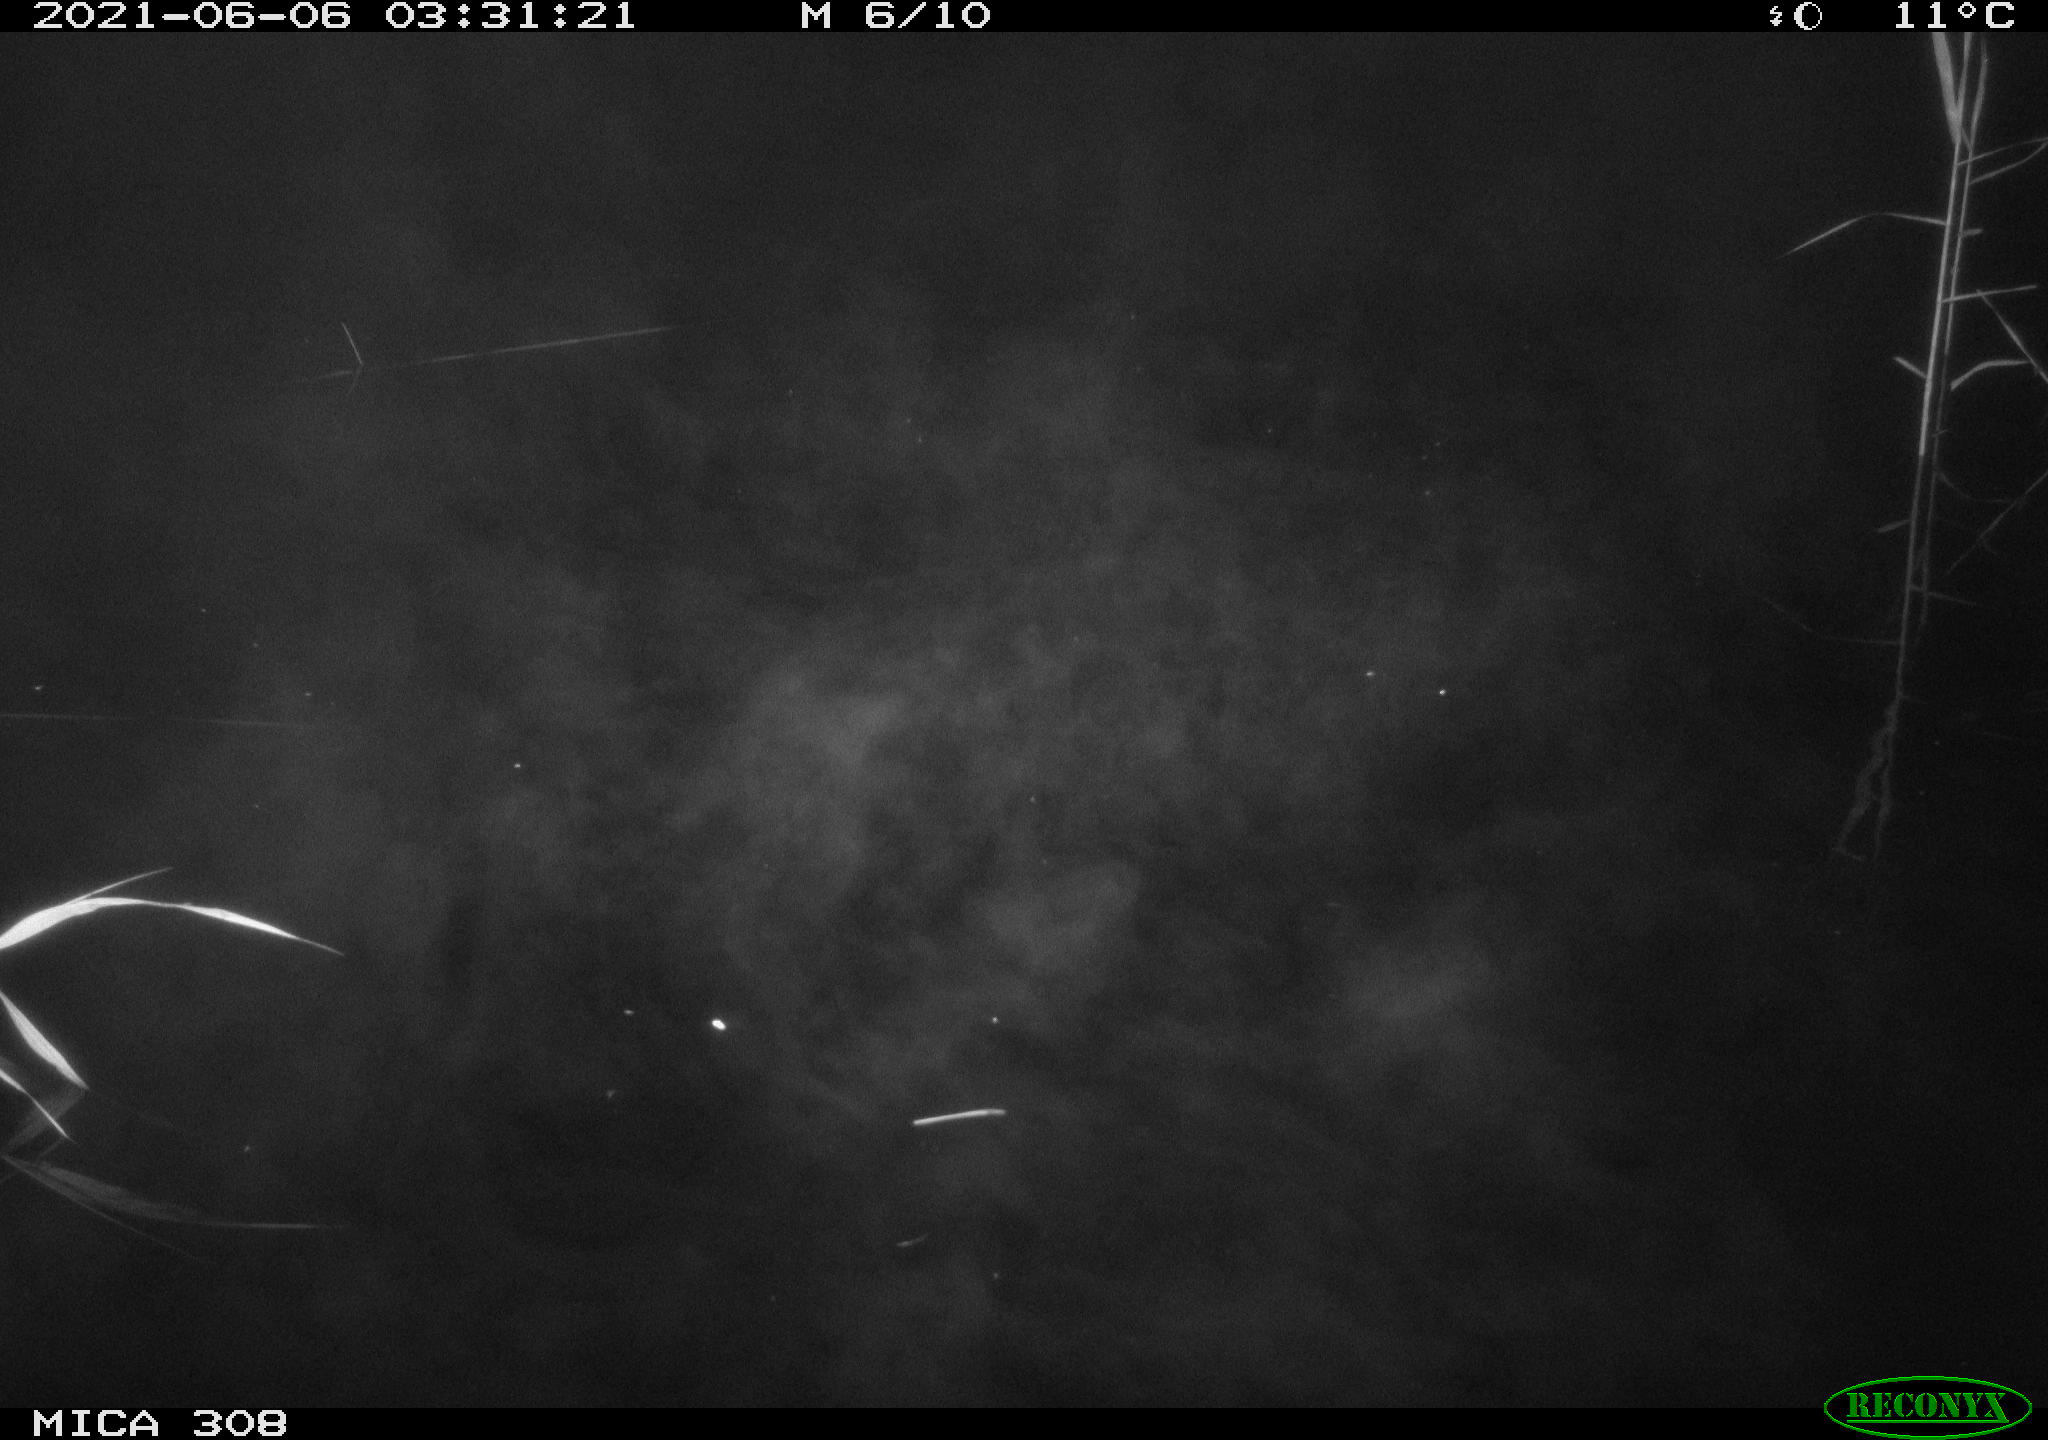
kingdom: Animalia
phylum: Chordata
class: Aves
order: Gruiformes
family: Rallidae
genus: Gallinula
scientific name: Gallinula chloropus
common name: Common moorhen
